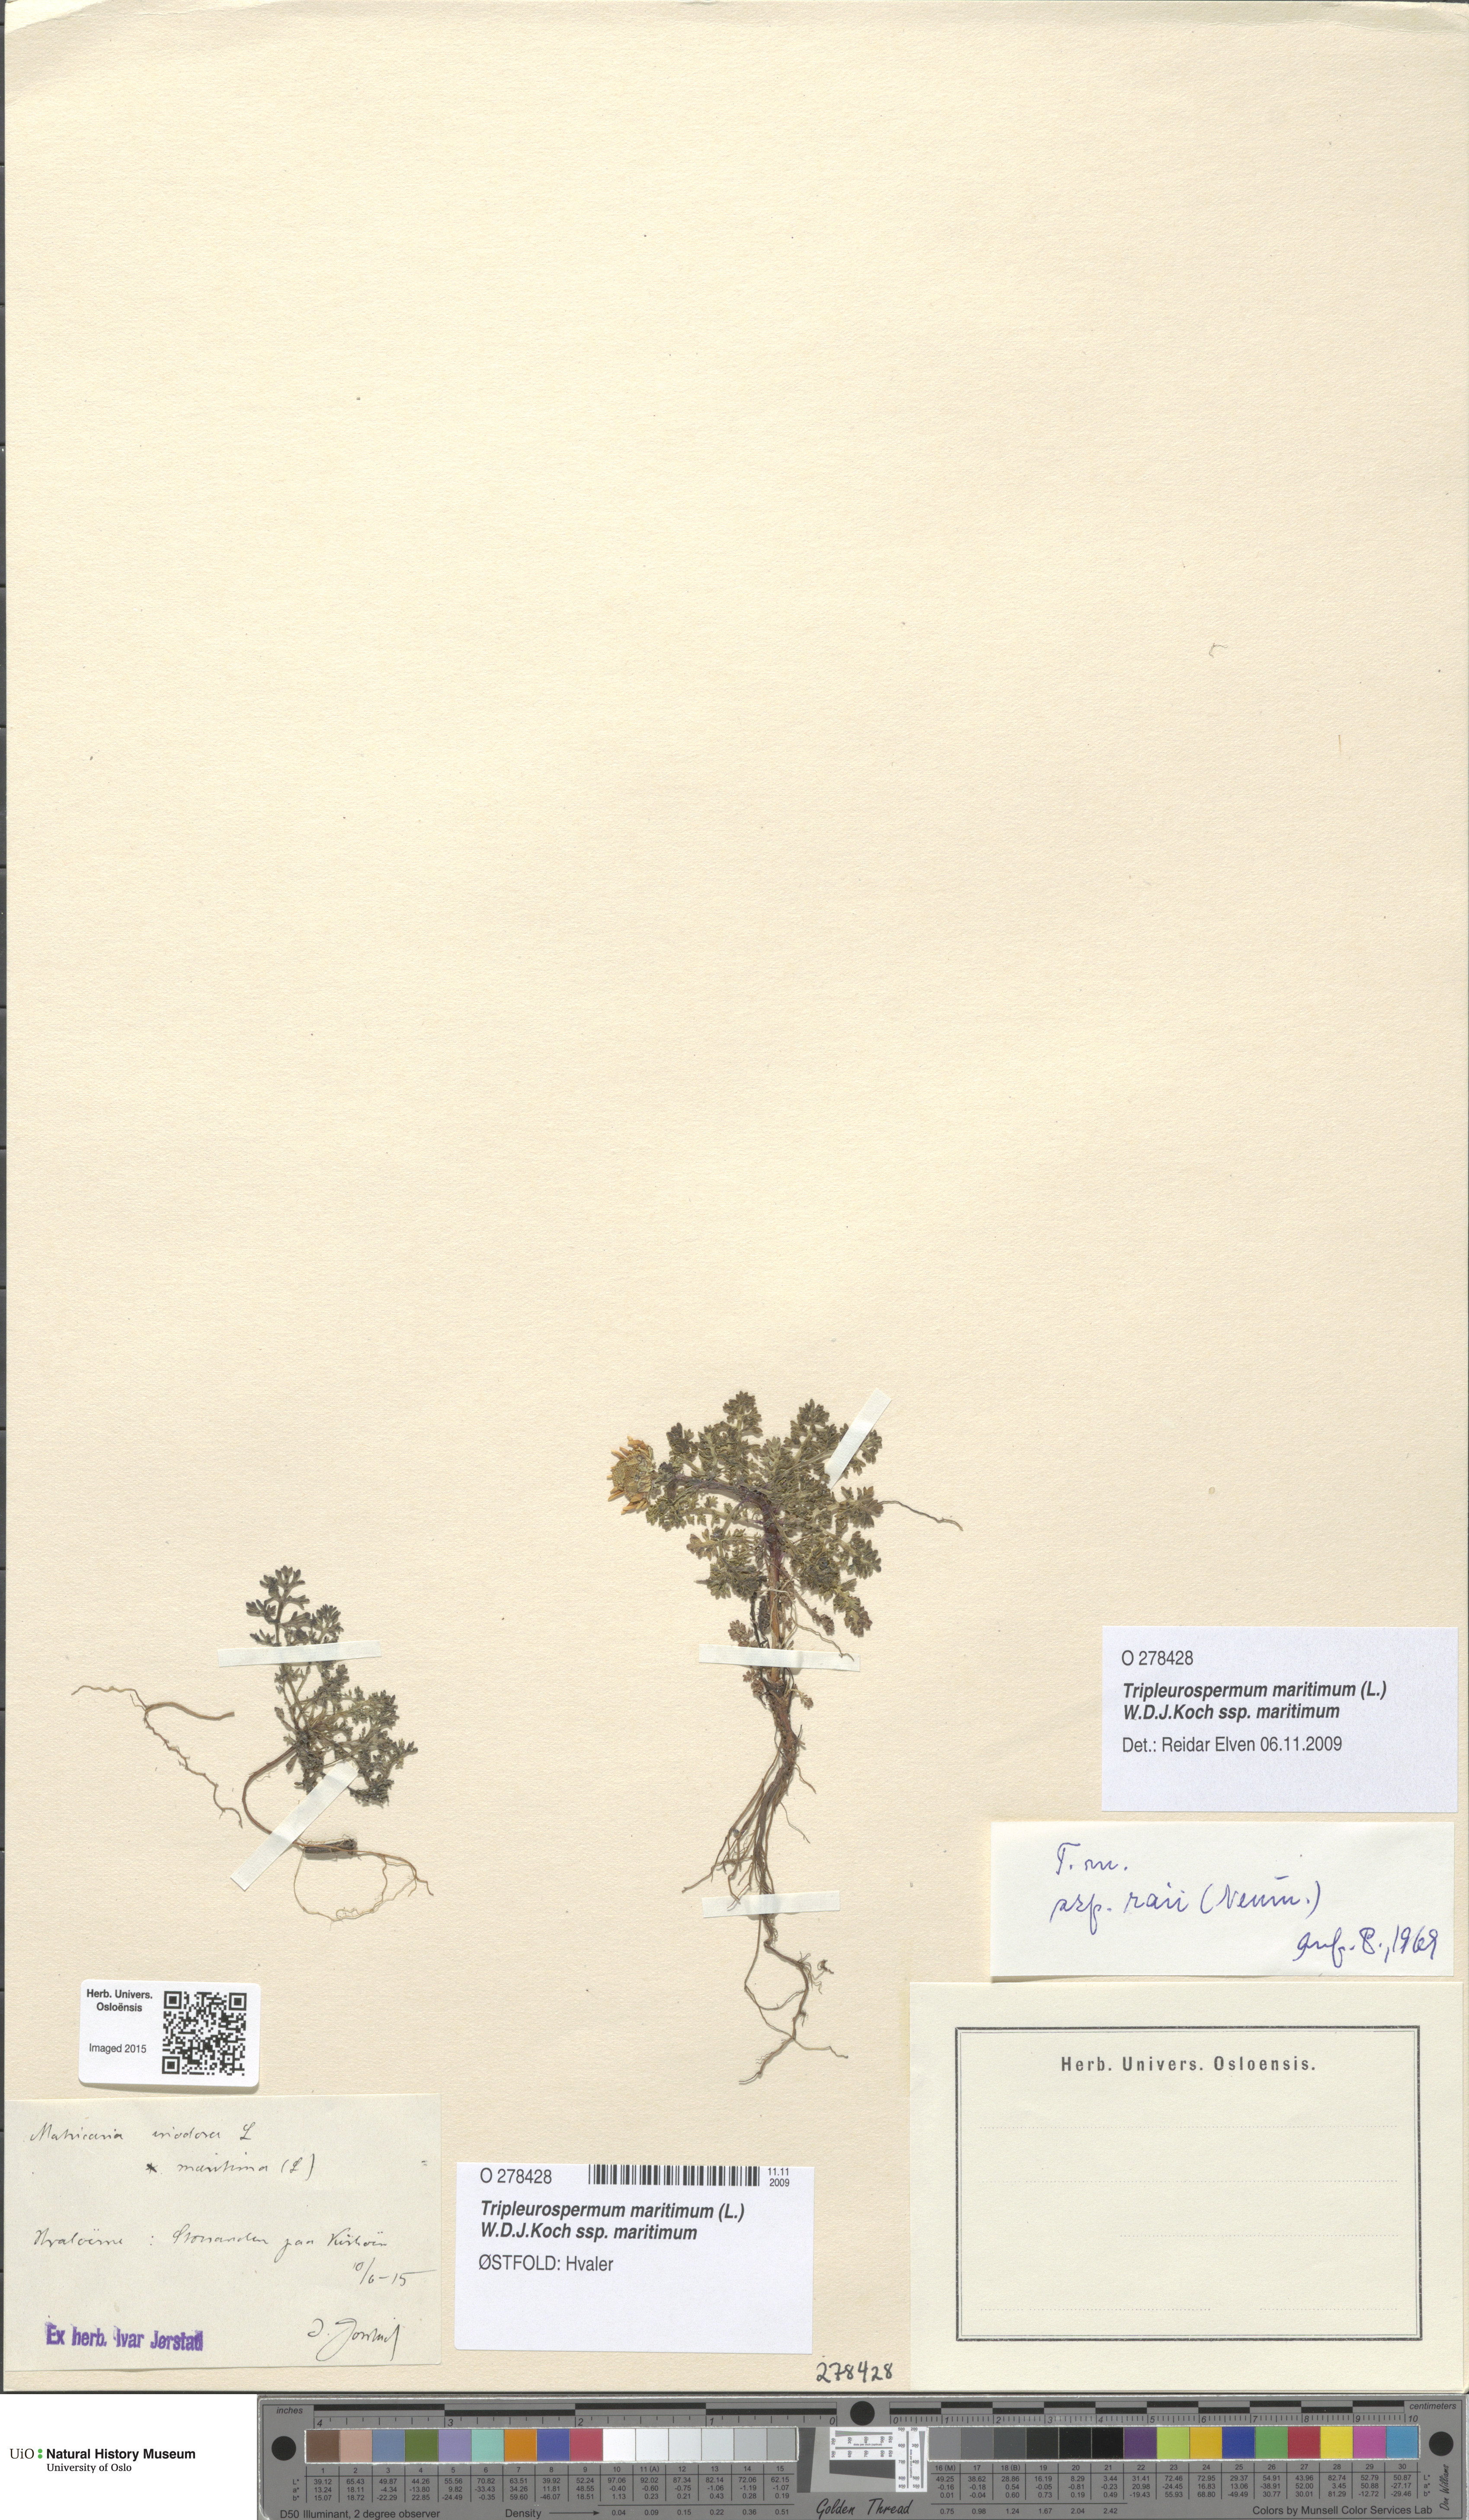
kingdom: Plantae
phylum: Tracheophyta
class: Magnoliopsida
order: Asterales
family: Asteraceae
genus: Tripleurospermum
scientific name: Tripleurospermum maritimum
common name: Sea mayweed
